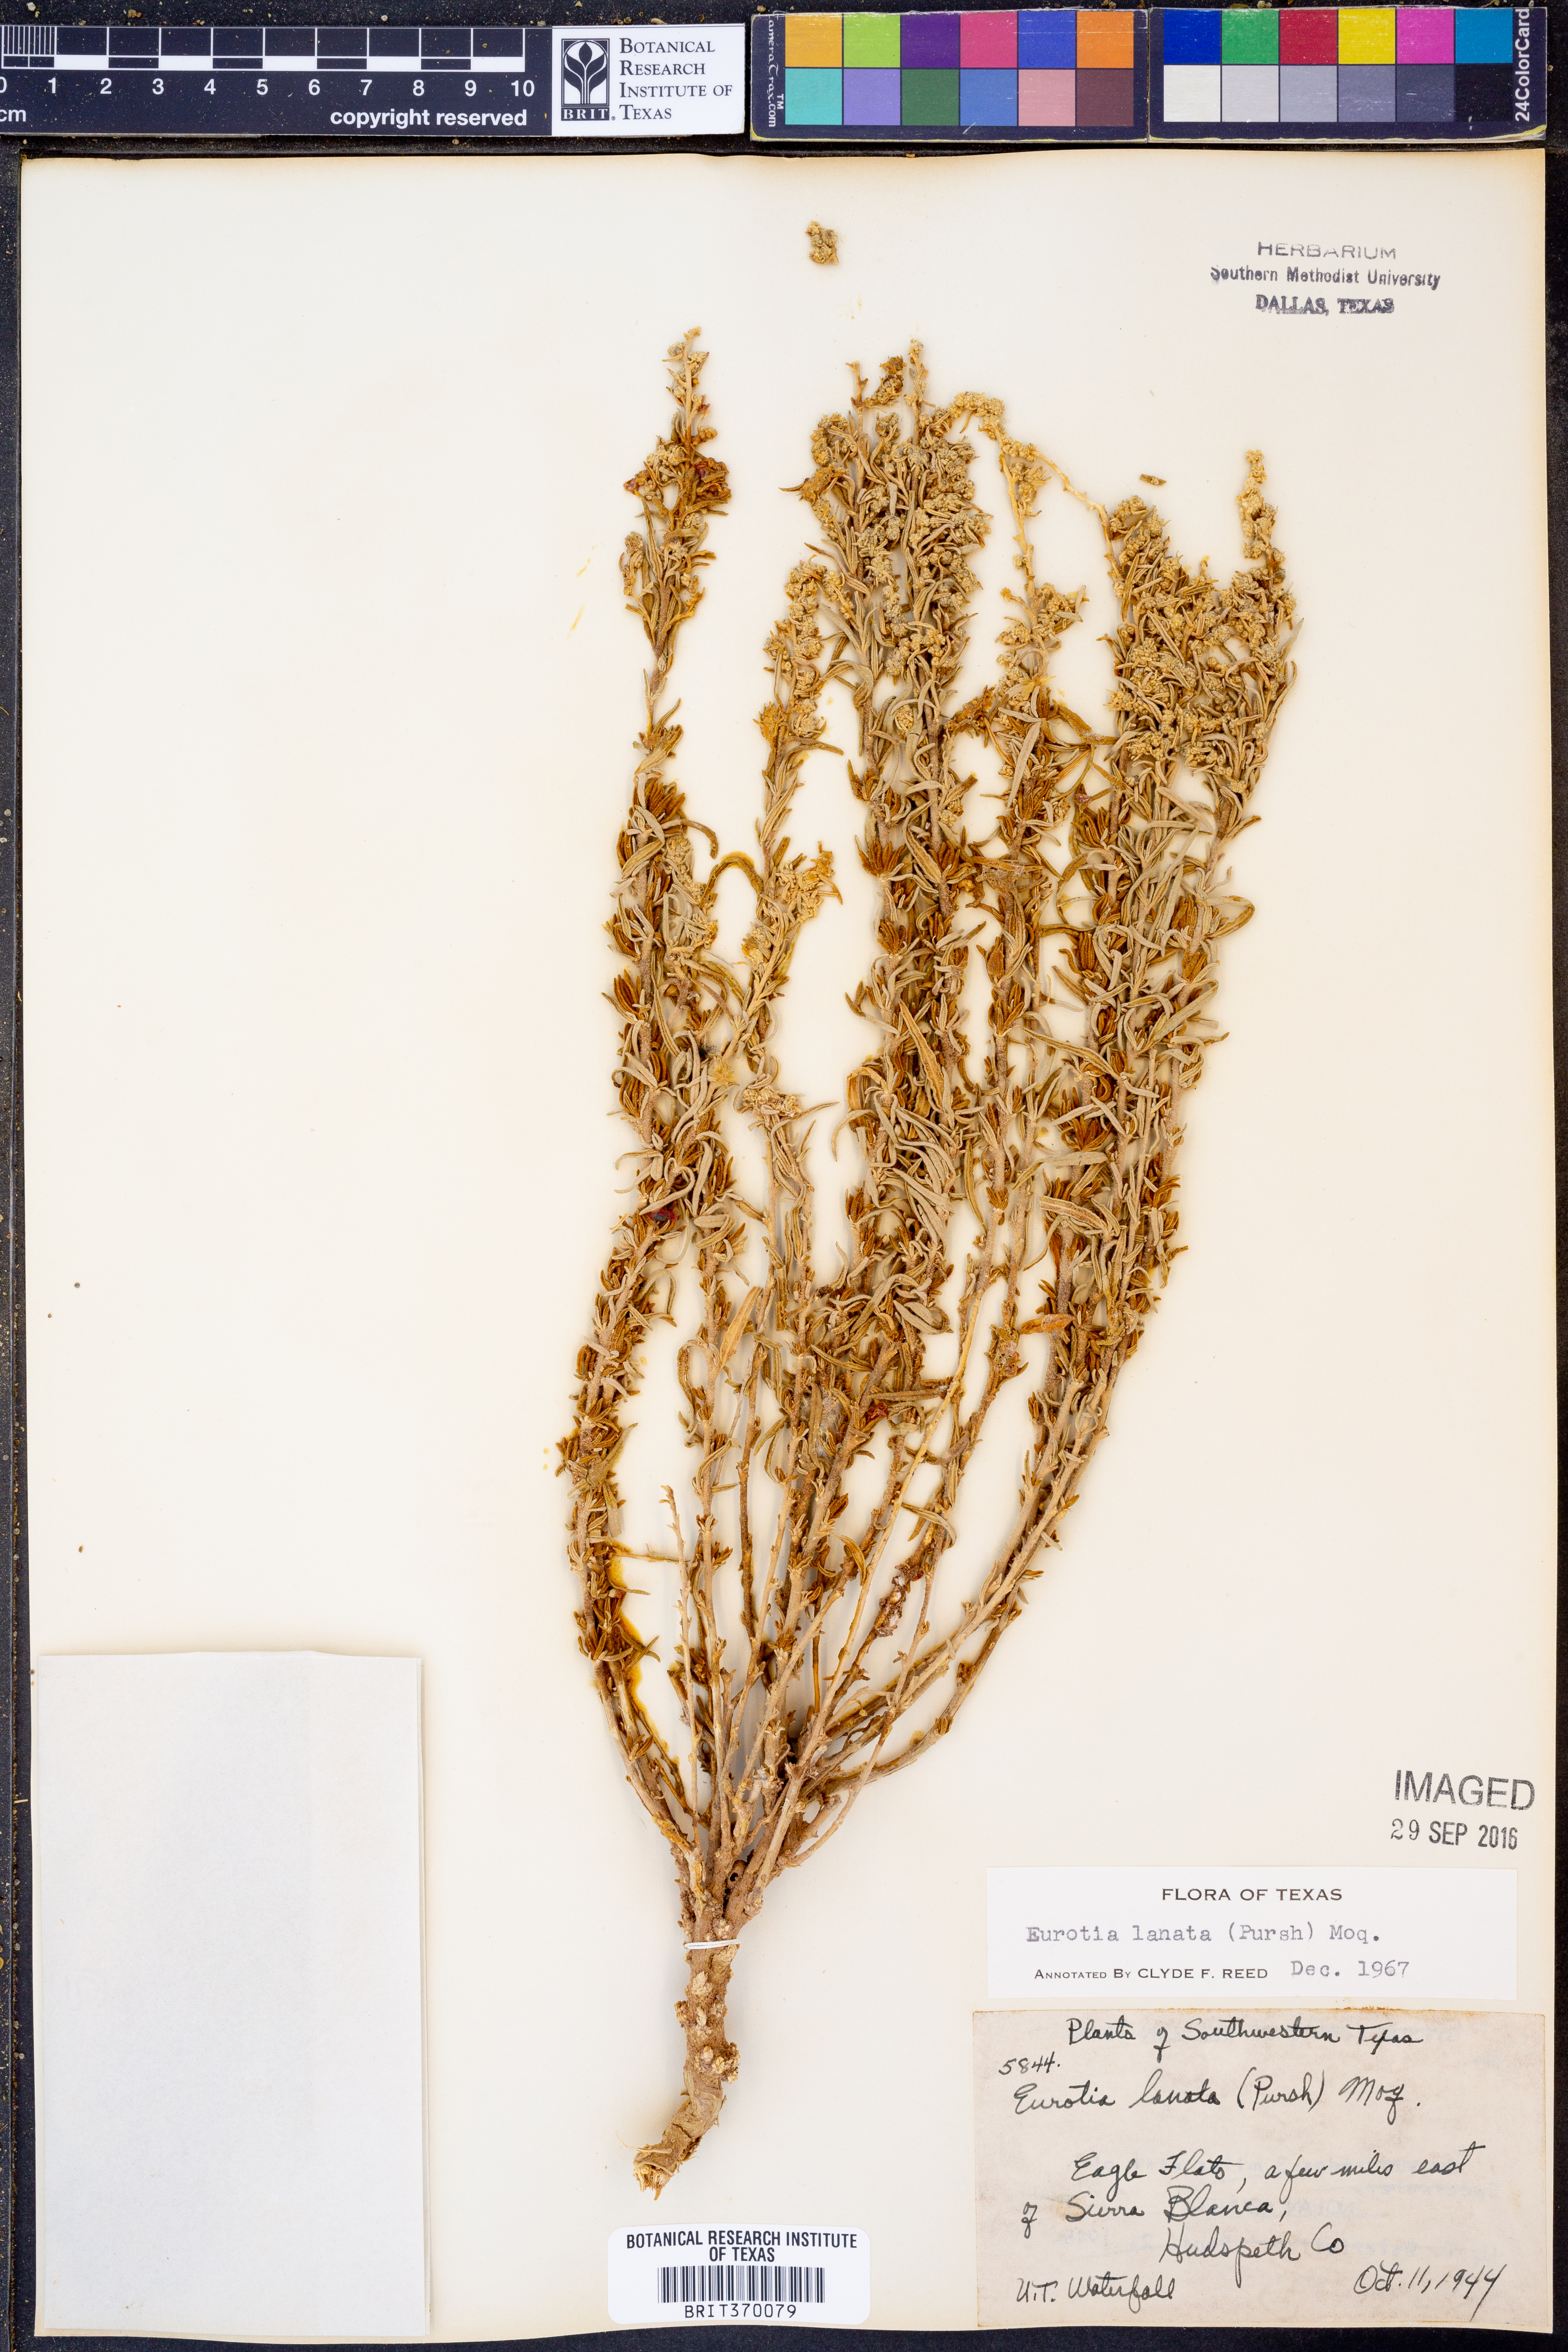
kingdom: Plantae
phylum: Tracheophyta
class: Magnoliopsida
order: Caryophyllales
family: Amaranthaceae
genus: Krascheninnikovia
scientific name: Krascheninnikovia lanata
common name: Winterfat
